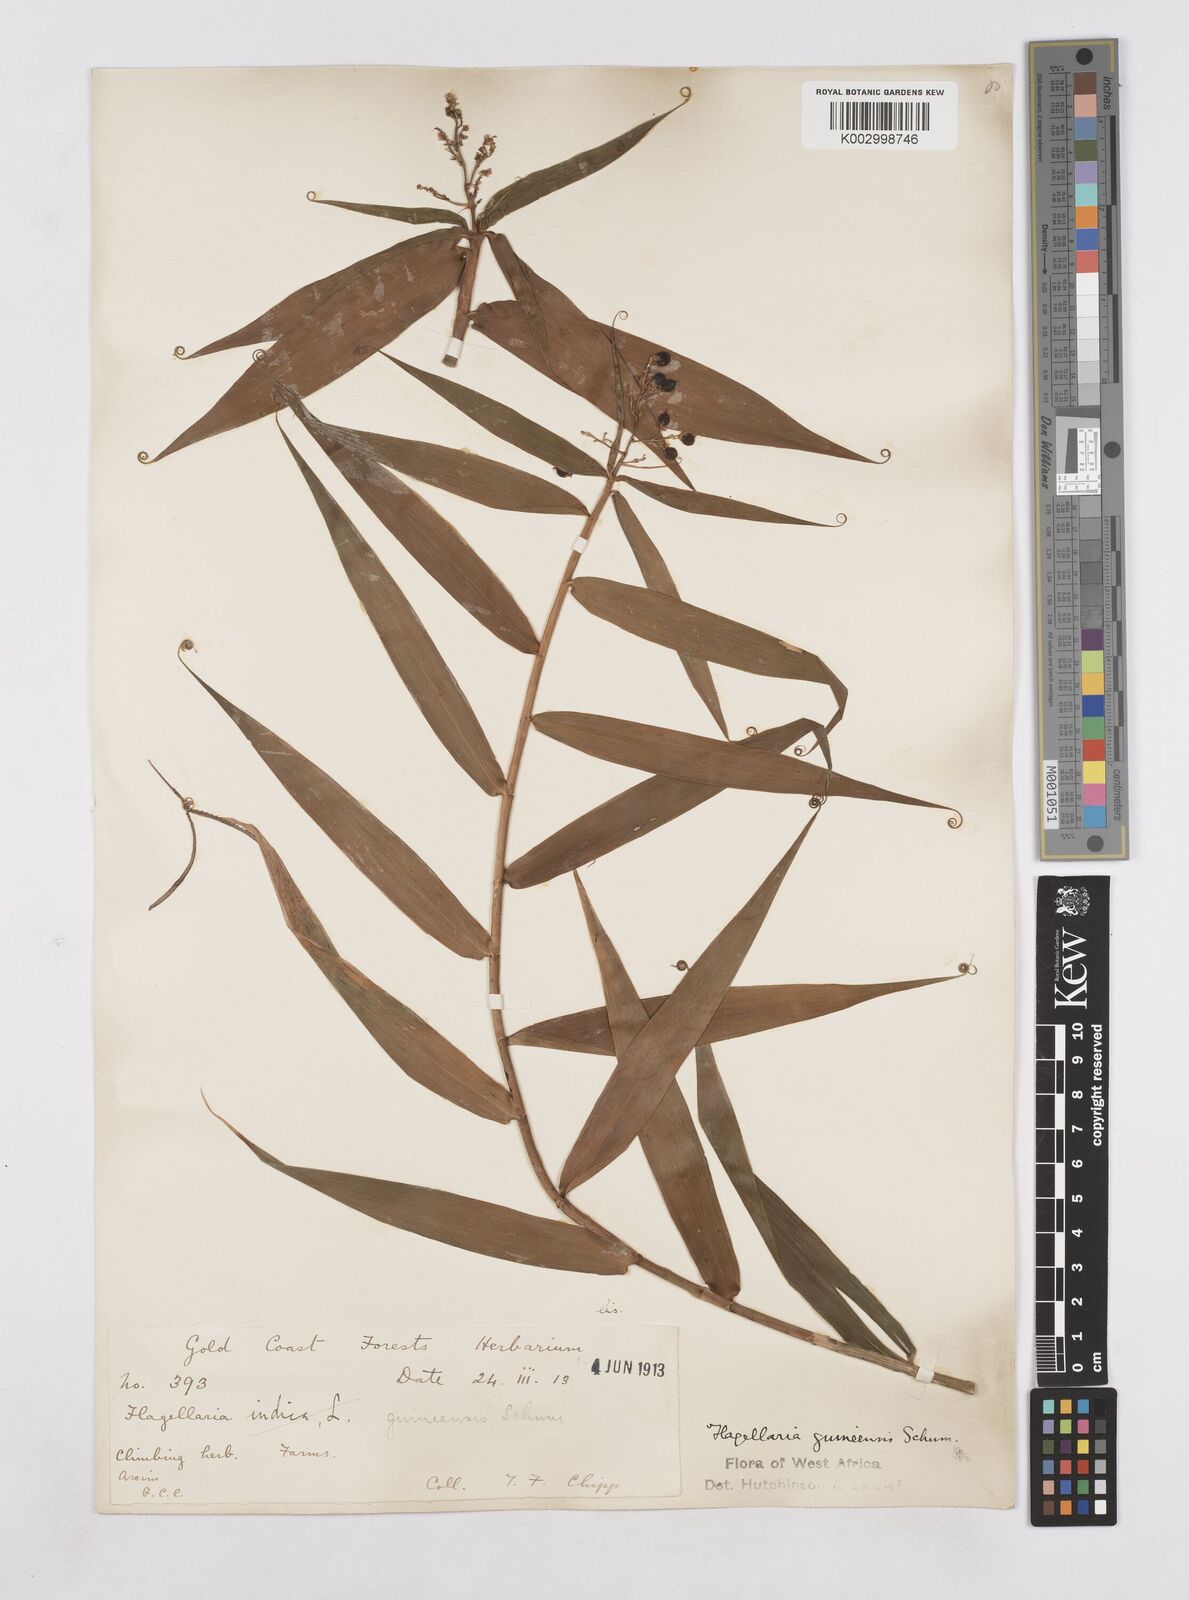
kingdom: Plantae
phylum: Tracheophyta
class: Liliopsida
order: Poales
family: Flagellariaceae
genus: Flagellaria
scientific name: Flagellaria guineensis
